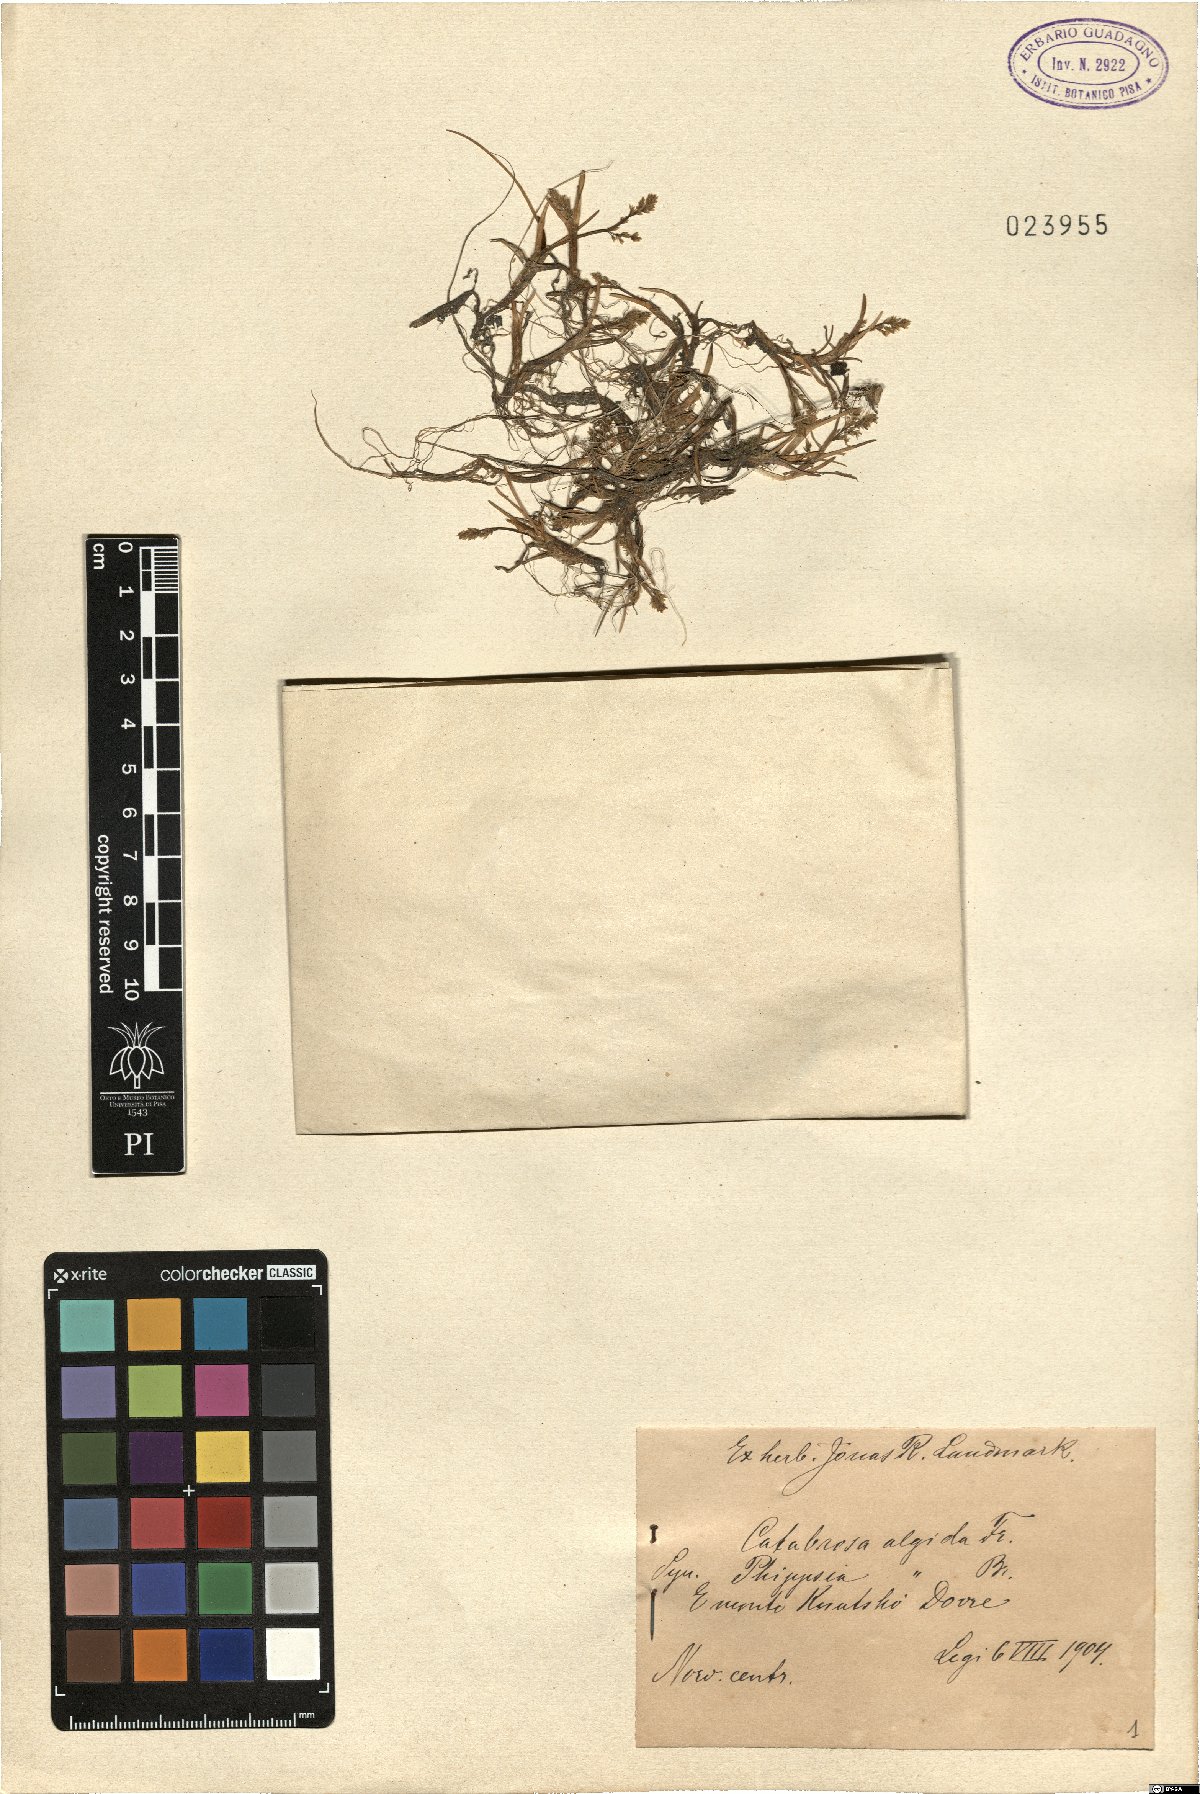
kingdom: Plantae
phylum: Tracheophyta
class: Liliopsida
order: Poales
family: Poaceae
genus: Phippsia
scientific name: Phippsia algida
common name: Ice grass
